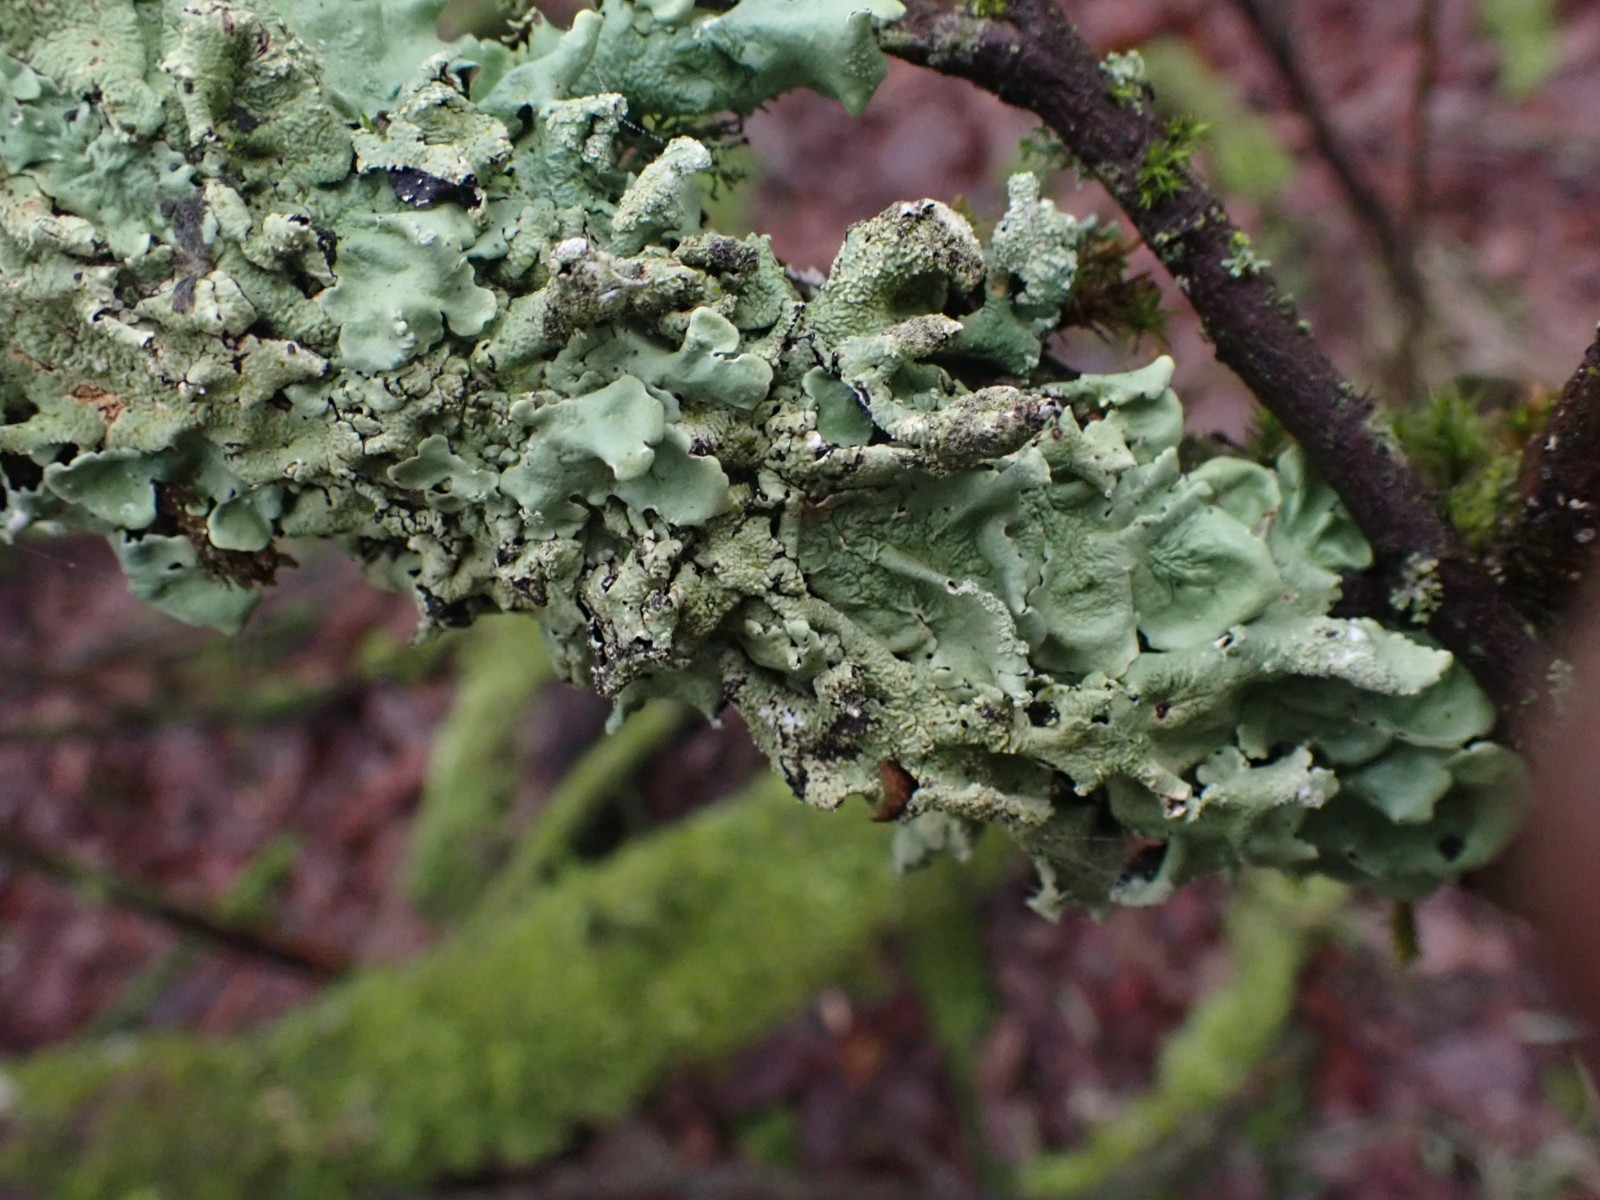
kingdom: Fungi
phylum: Ascomycota
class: Lecanoromycetes
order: Lecanorales
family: Parmeliaceae
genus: Flavoparmelia
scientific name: Flavoparmelia caperata
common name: gulgrøn skållav
